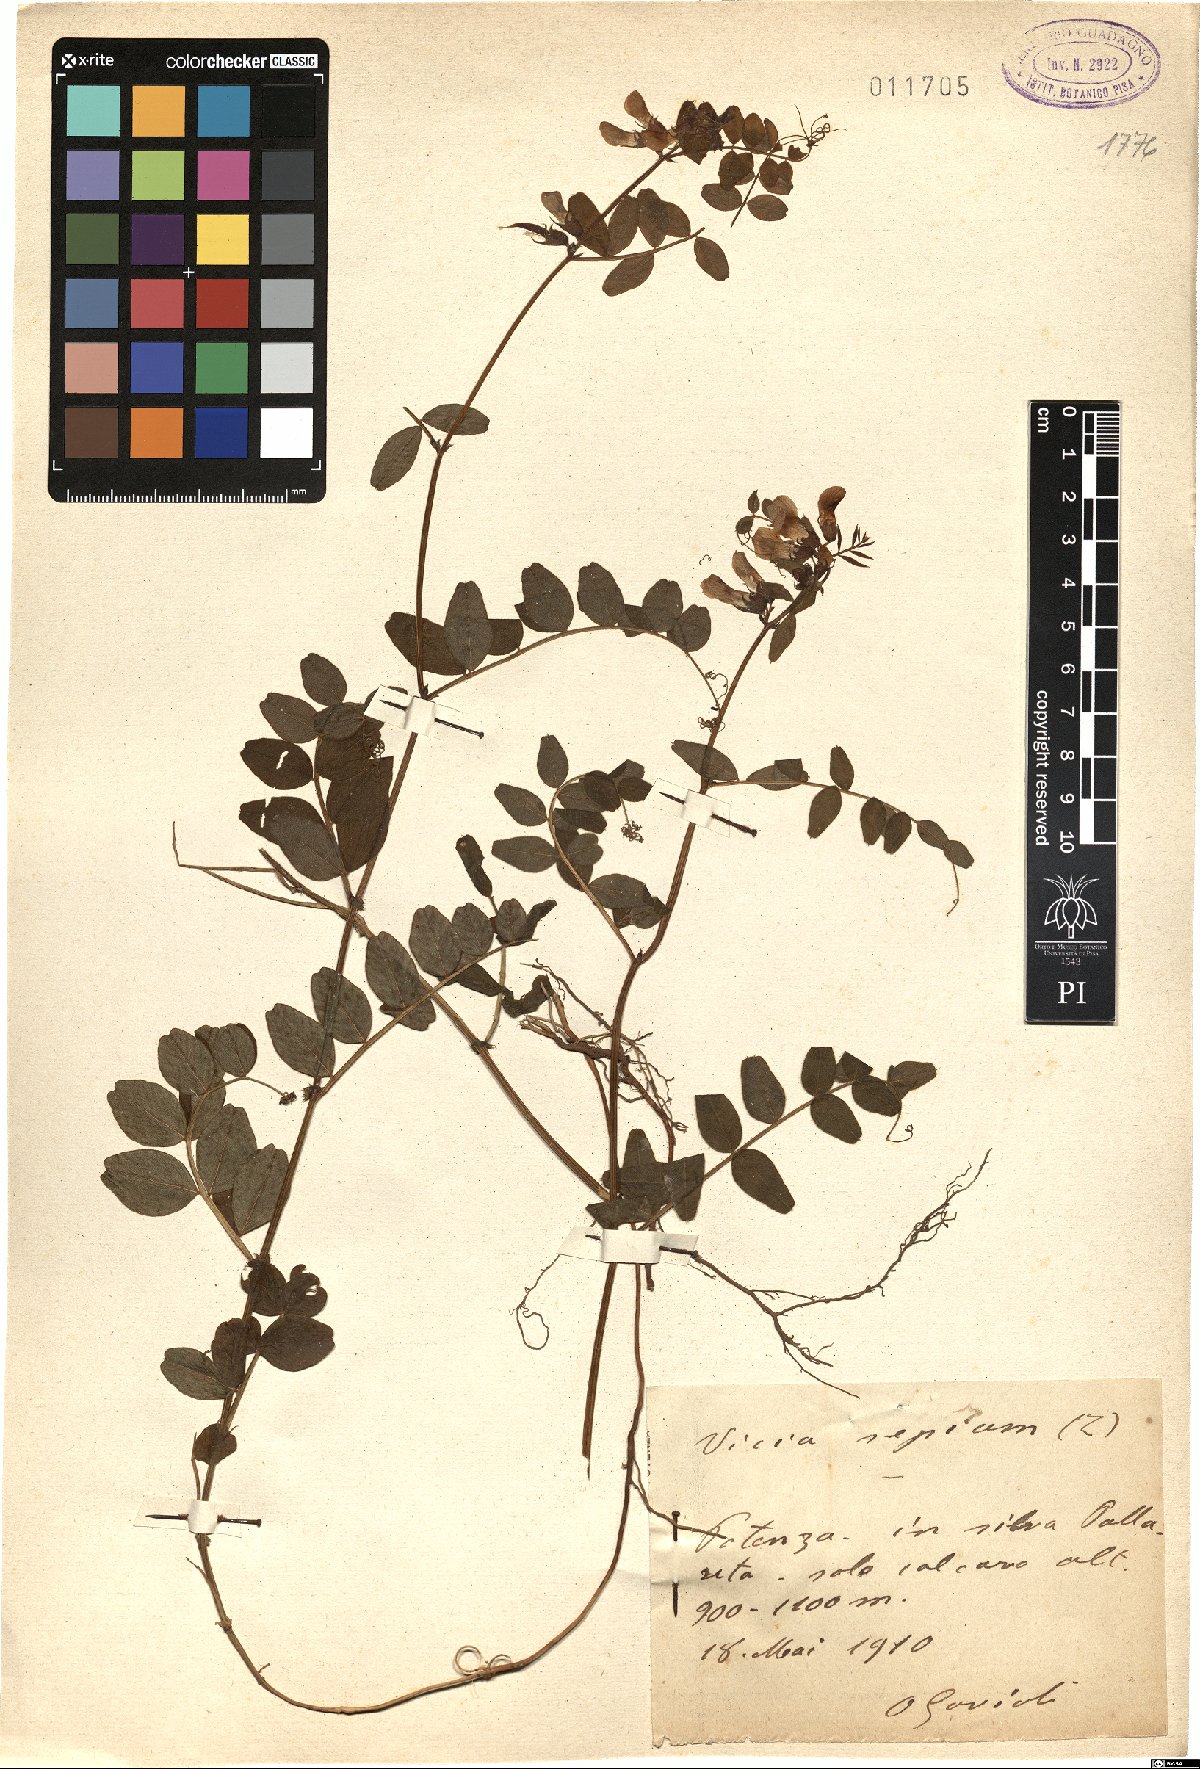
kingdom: Plantae
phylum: Tracheophyta
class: Magnoliopsida
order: Fabales
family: Fabaceae
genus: Vicia
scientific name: Vicia sepium
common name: Bush vetch
